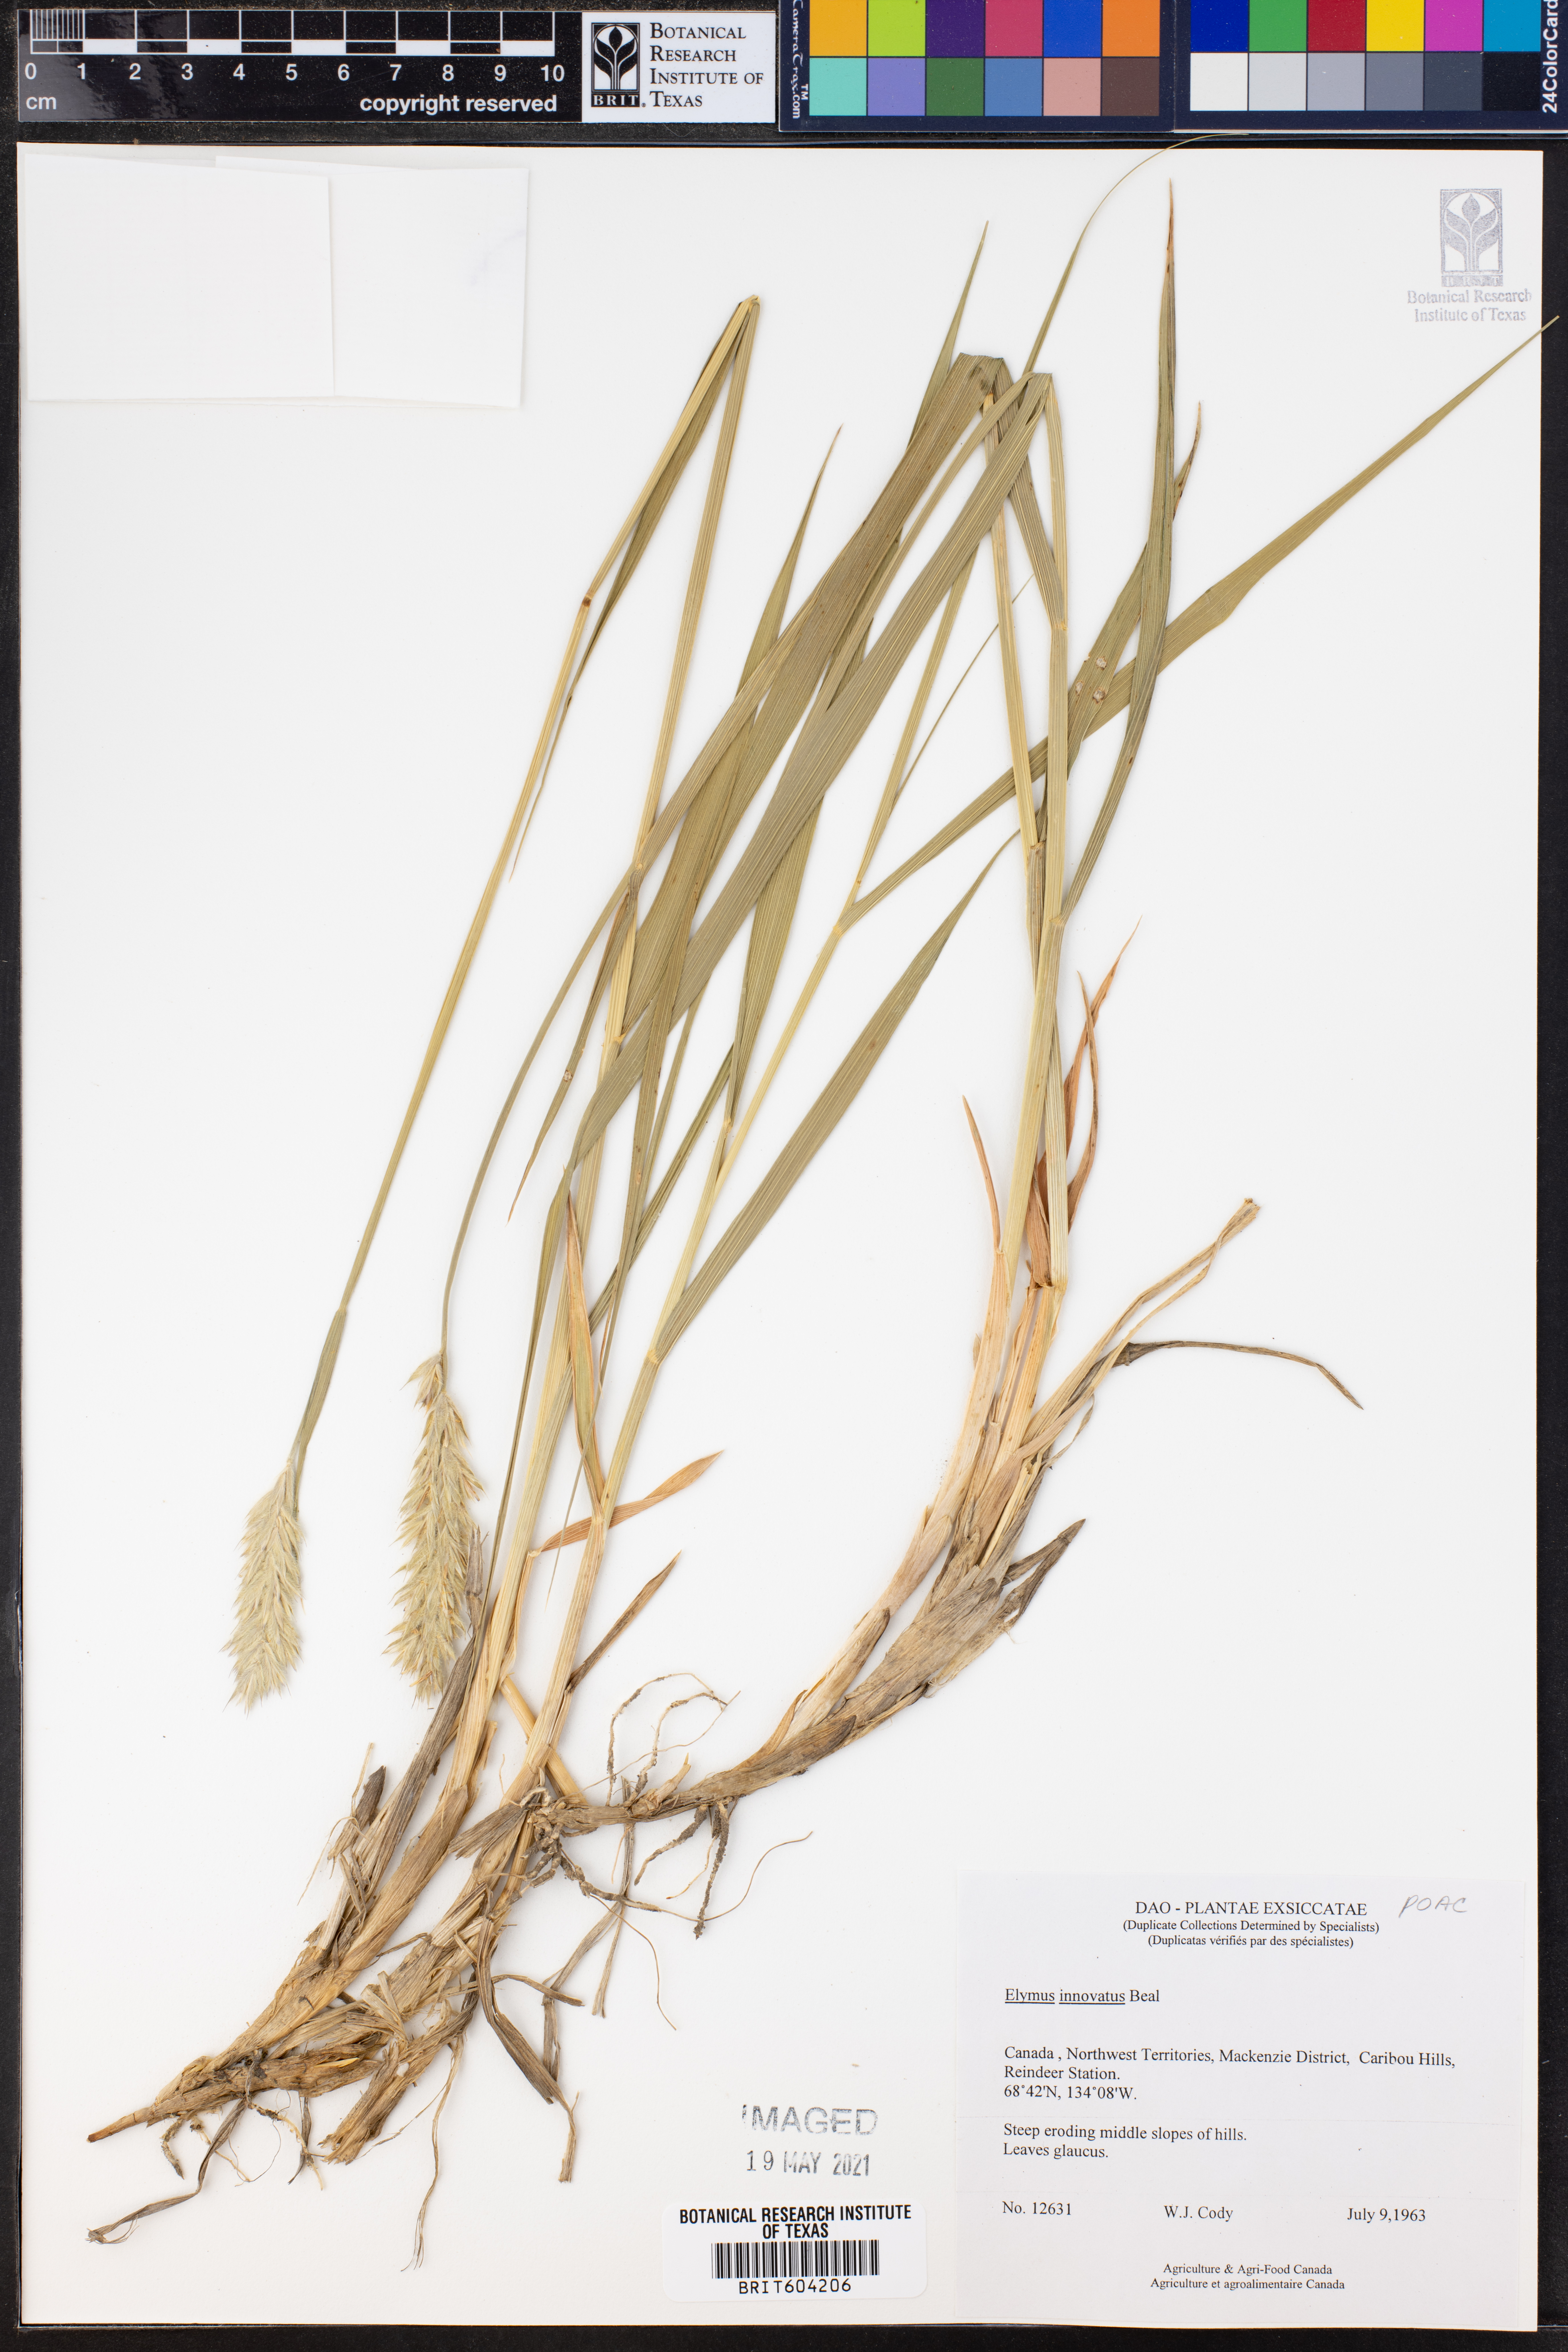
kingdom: Plantae
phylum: Tracheophyta
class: Liliopsida
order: Poales
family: Poaceae
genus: Leymus
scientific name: Leymus innovatus
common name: Boreal wild rye
